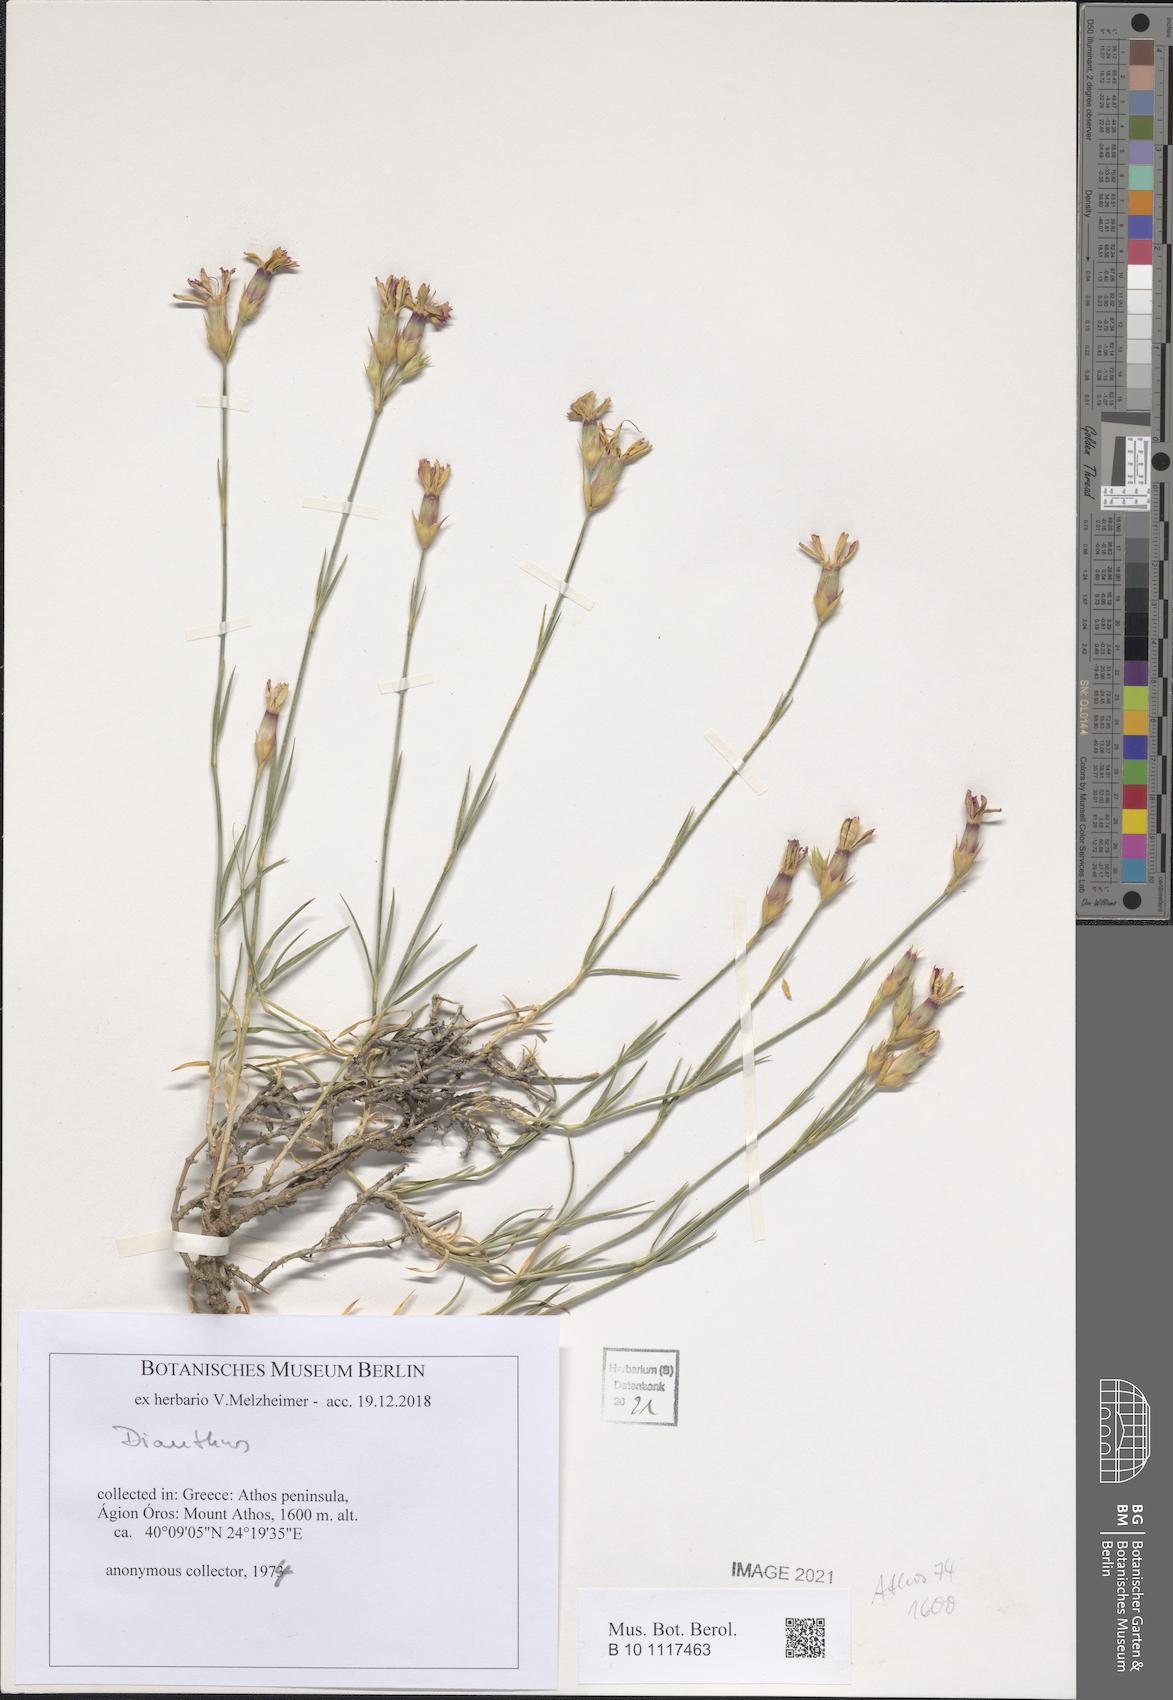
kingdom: Plantae
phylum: Tracheophyta
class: Magnoliopsida
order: Caryophyllales
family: Caryophyllaceae
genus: Dianthus
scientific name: Dianthus
